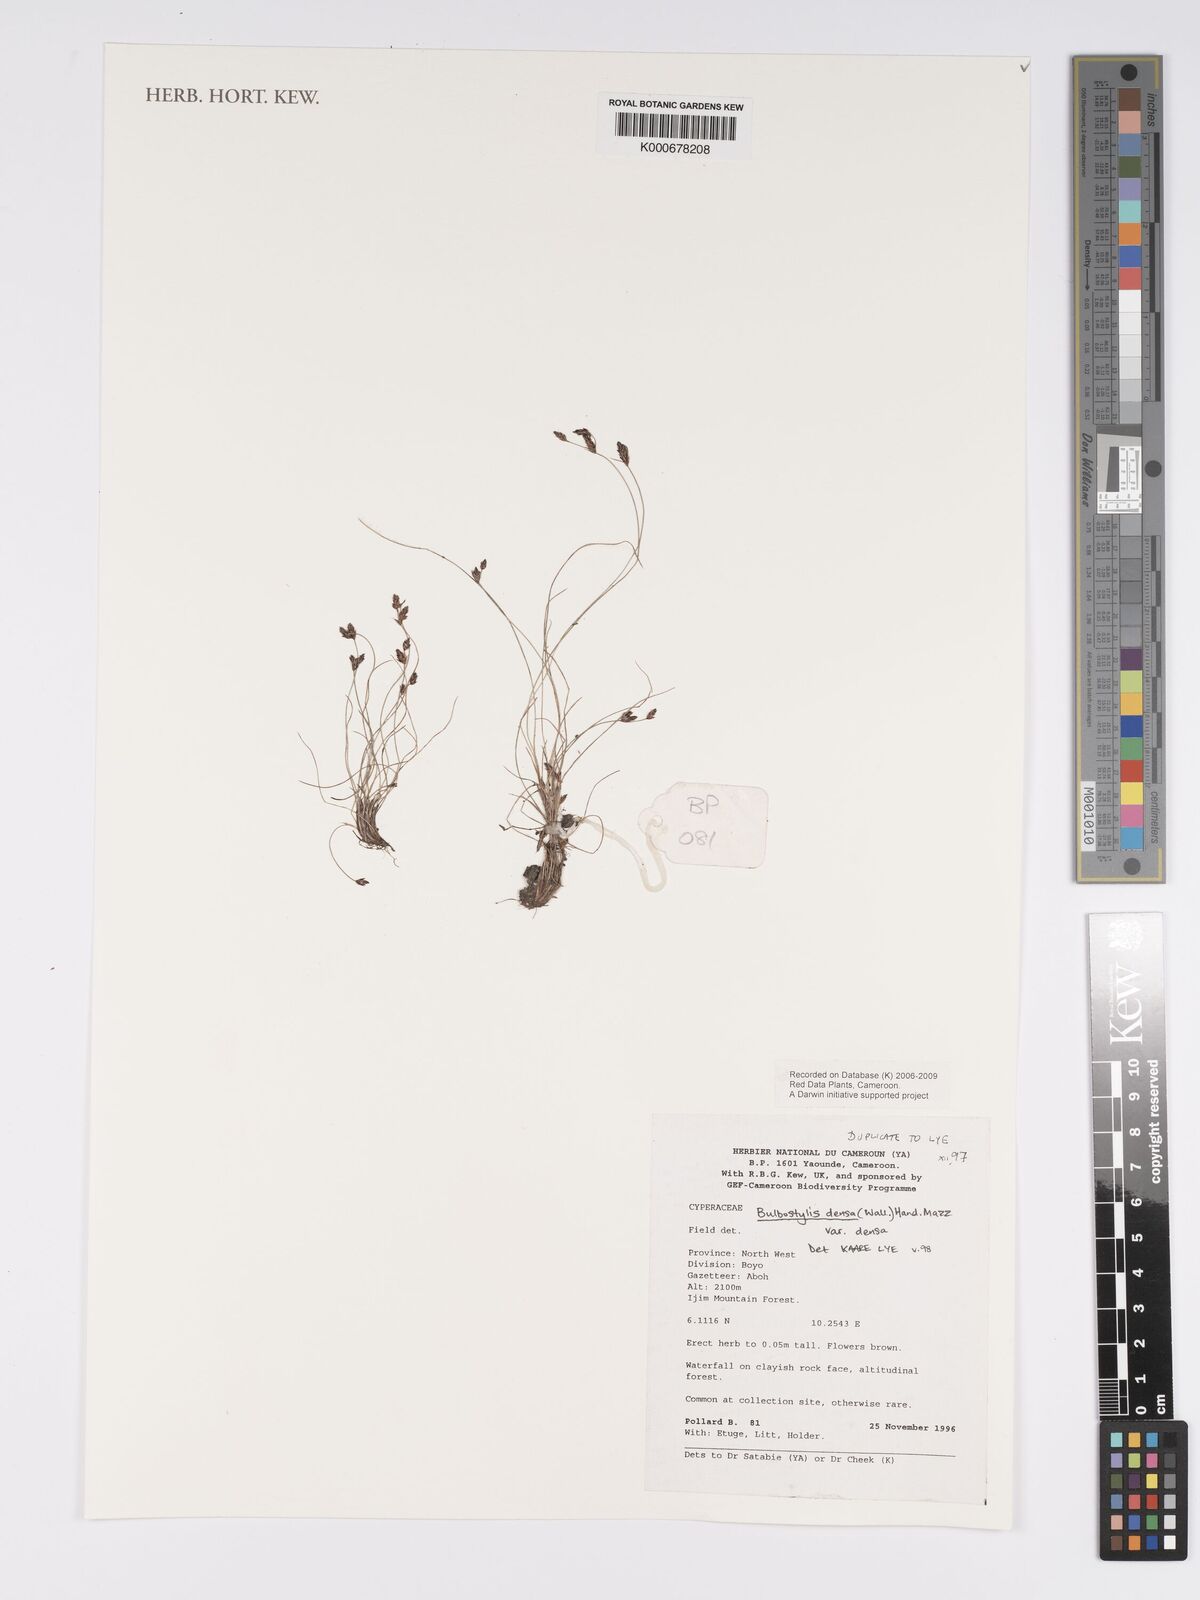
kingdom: Plantae
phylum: Tracheophyta
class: Liliopsida
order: Poales
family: Cyperaceae
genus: Bulbostylis
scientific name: Bulbostylis densa
